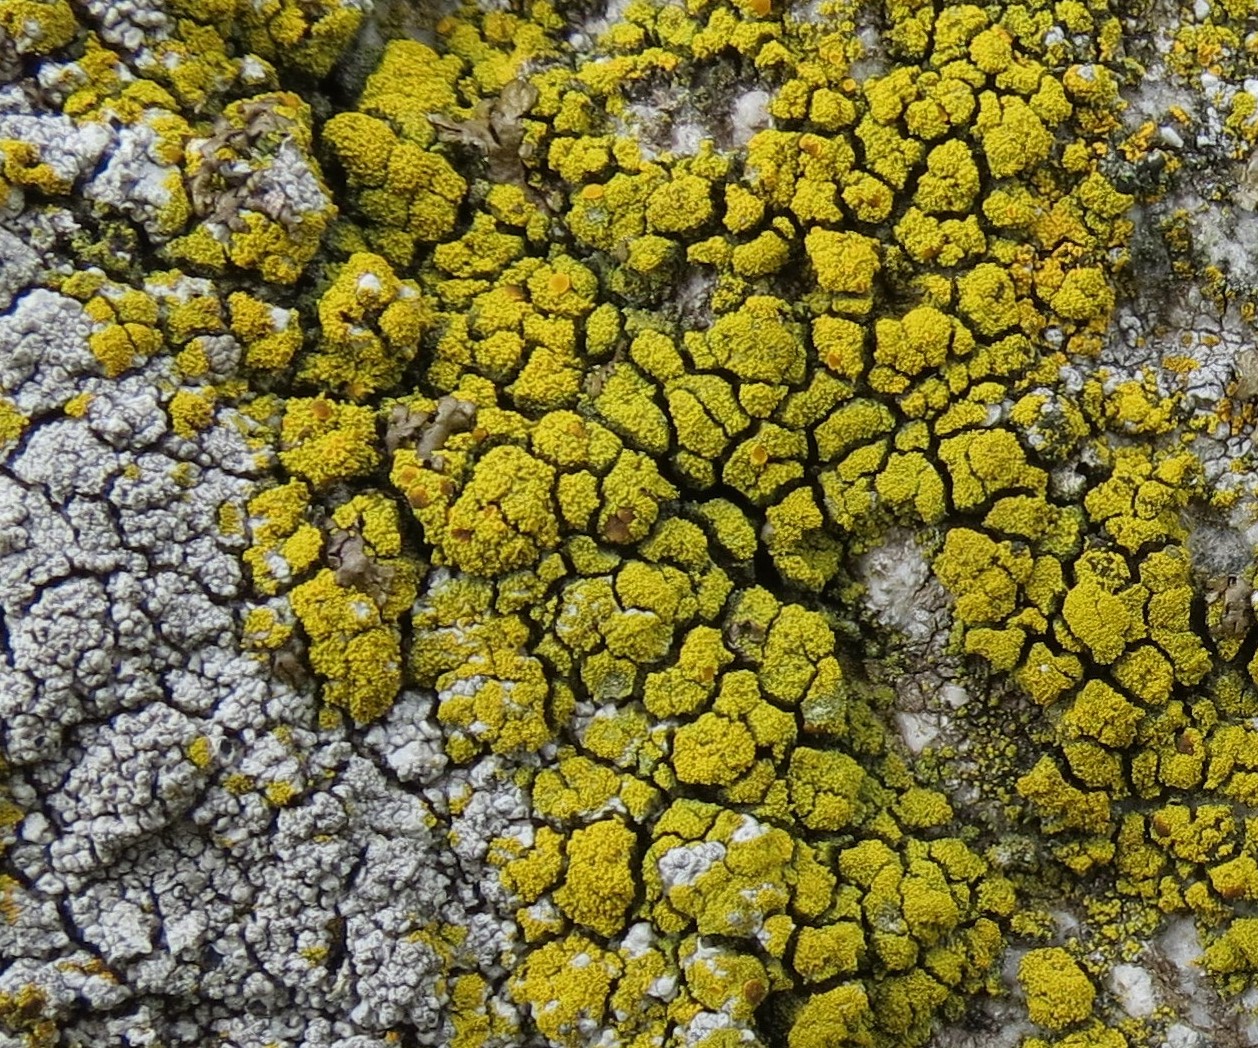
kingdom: Fungi
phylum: Ascomycota
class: Candelariomycetes
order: Candelariales
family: Candelariaceae
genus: Candelariella
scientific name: Candelariella coralliza
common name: pude-æggeblommelav
